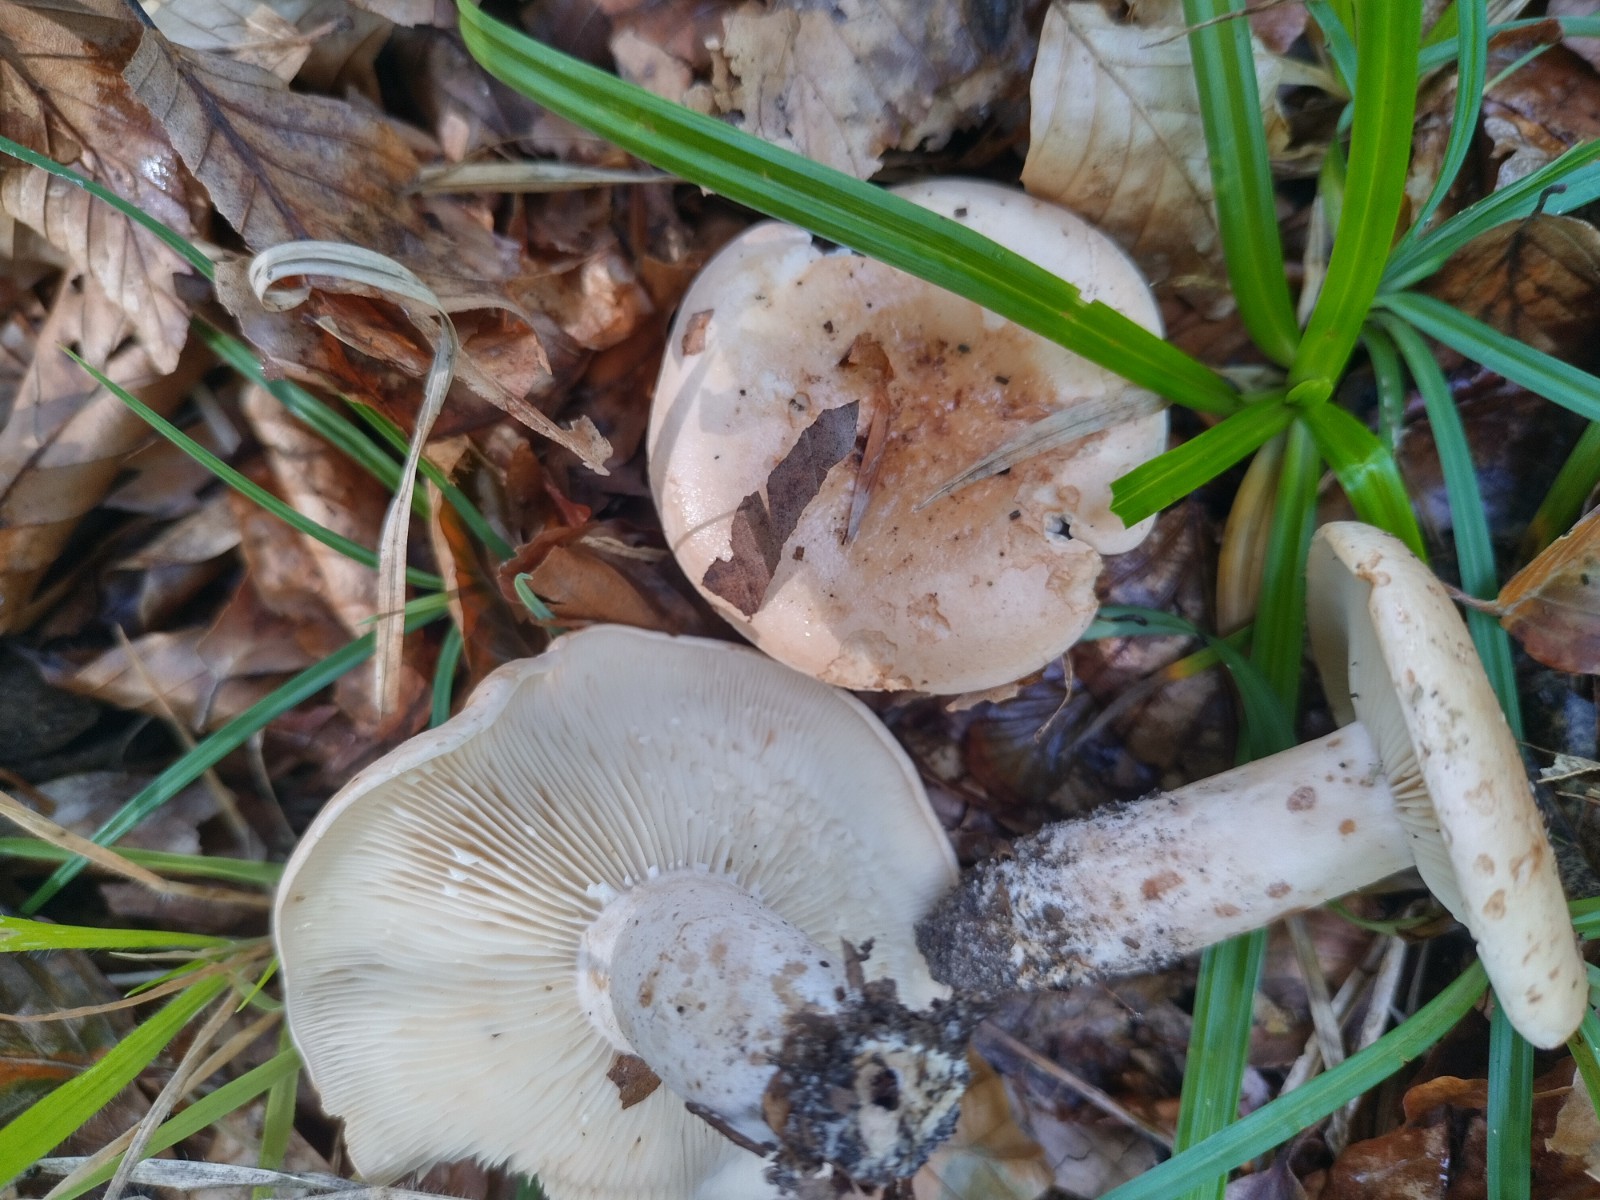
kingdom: Fungi
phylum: Basidiomycota
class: Agaricomycetes
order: Russulales
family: Russulaceae
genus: Lactarius
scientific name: Lactarius pallidus
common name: bleg mælkehat
